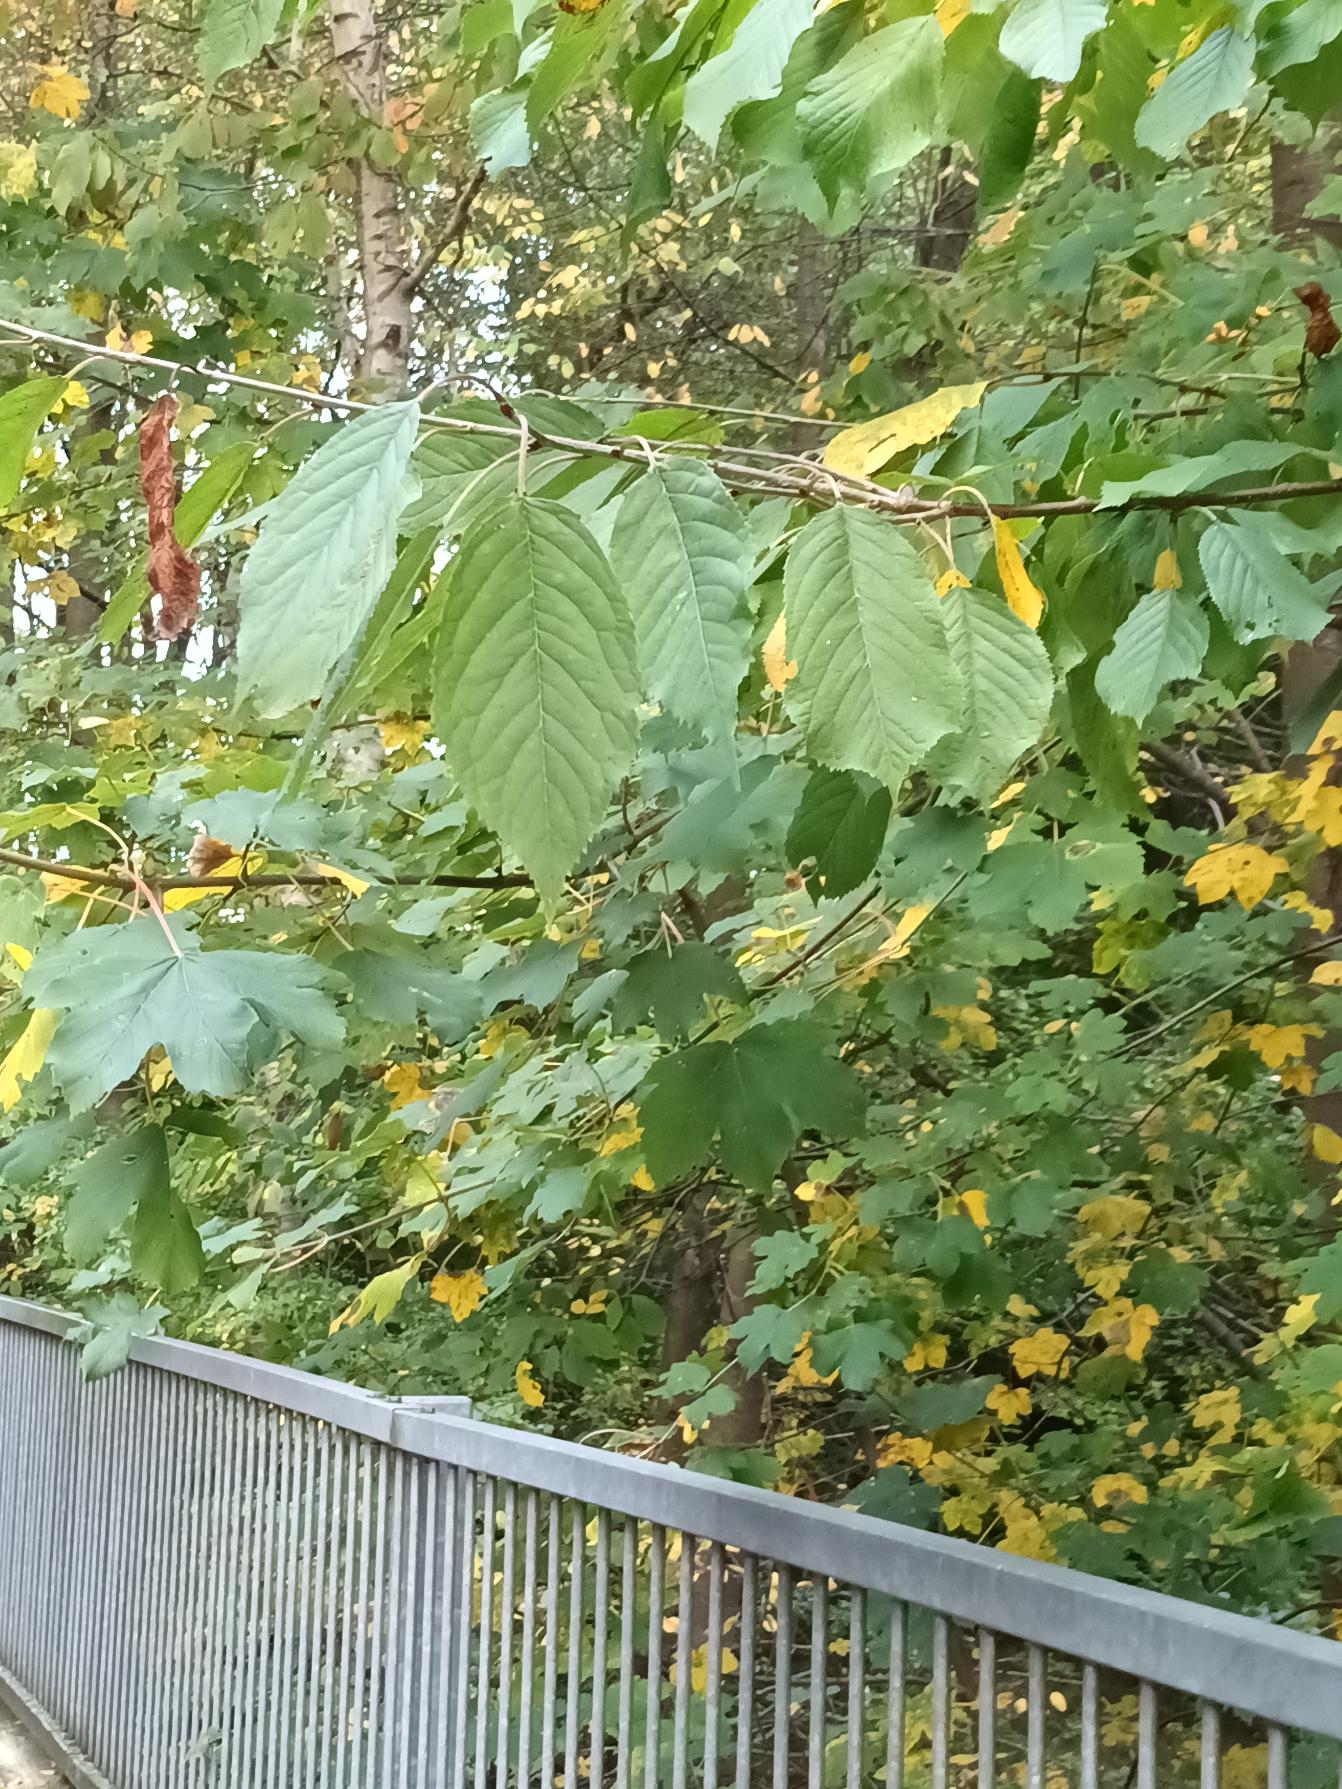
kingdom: Plantae
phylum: Tracheophyta
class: Magnoliopsida
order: Rosales
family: Rosaceae
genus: Prunus
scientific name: Prunus avium
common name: Fugle-kirsebær
